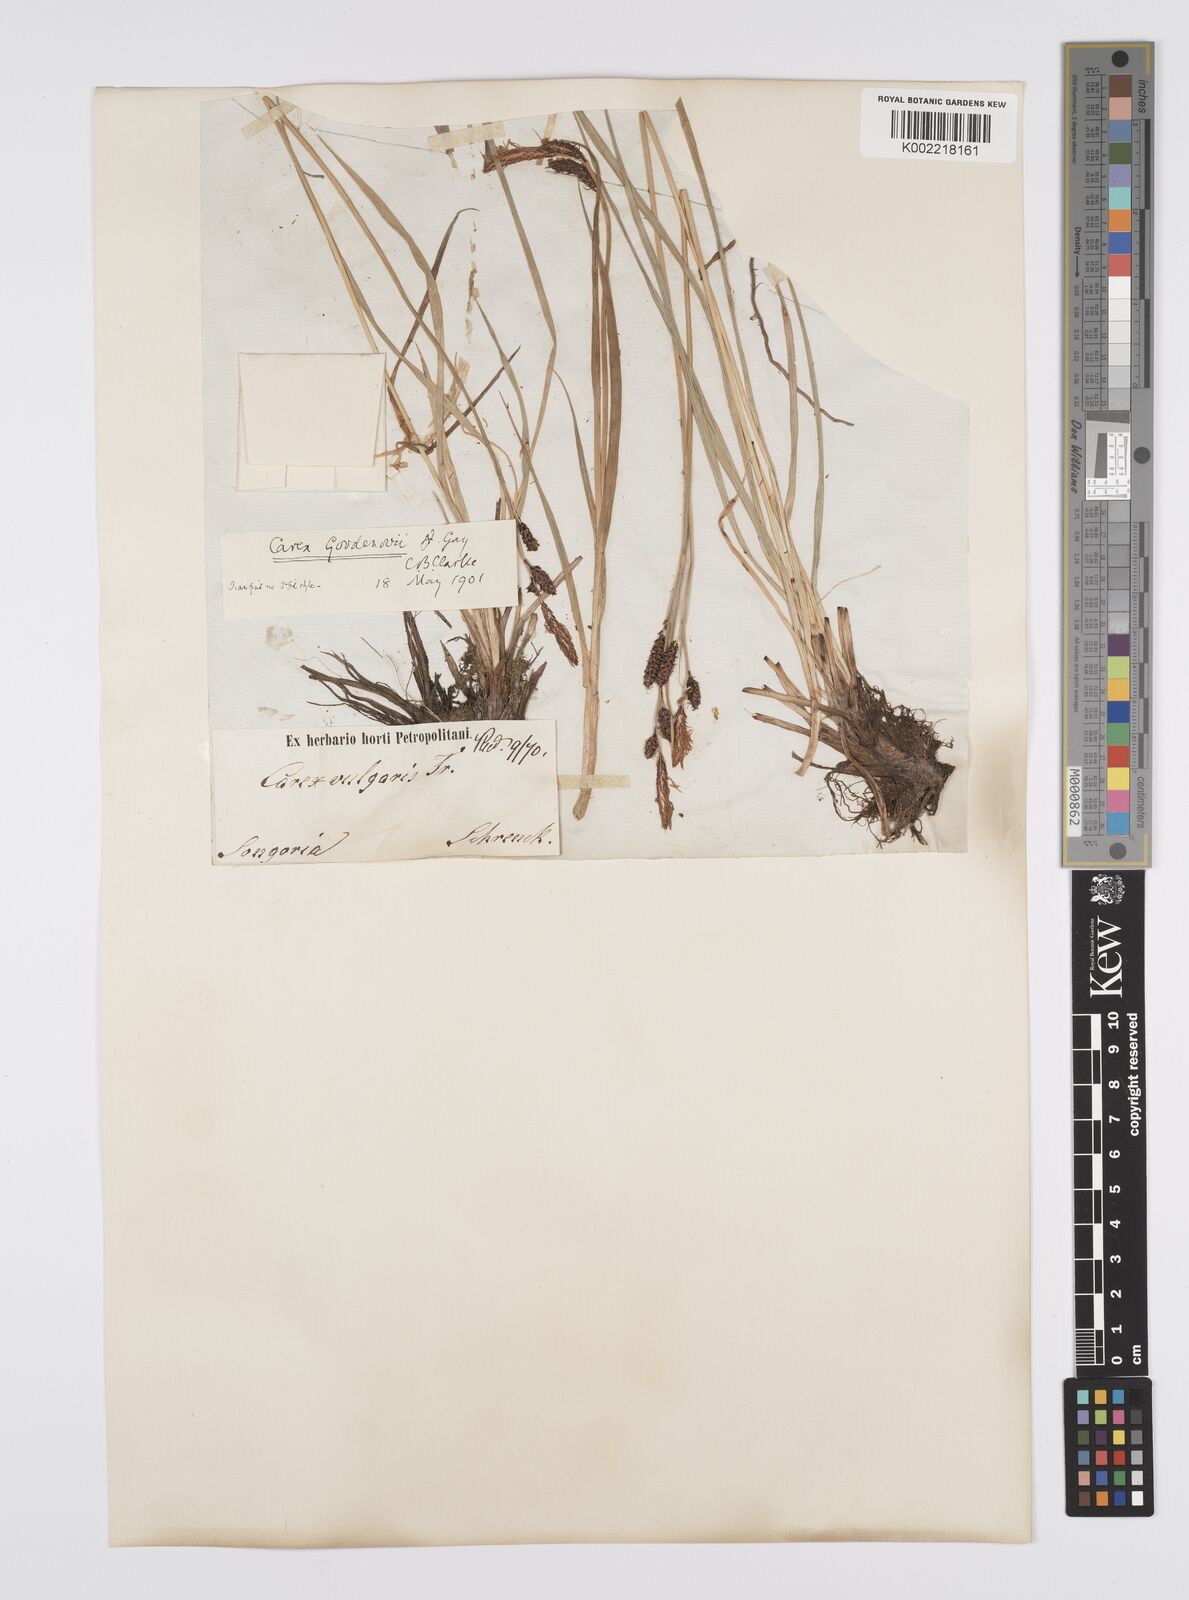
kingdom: Plantae
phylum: Tracheophyta
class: Liliopsida
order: Poales
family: Cyperaceae
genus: Carex
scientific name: Carex nigra
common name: Common sedge
